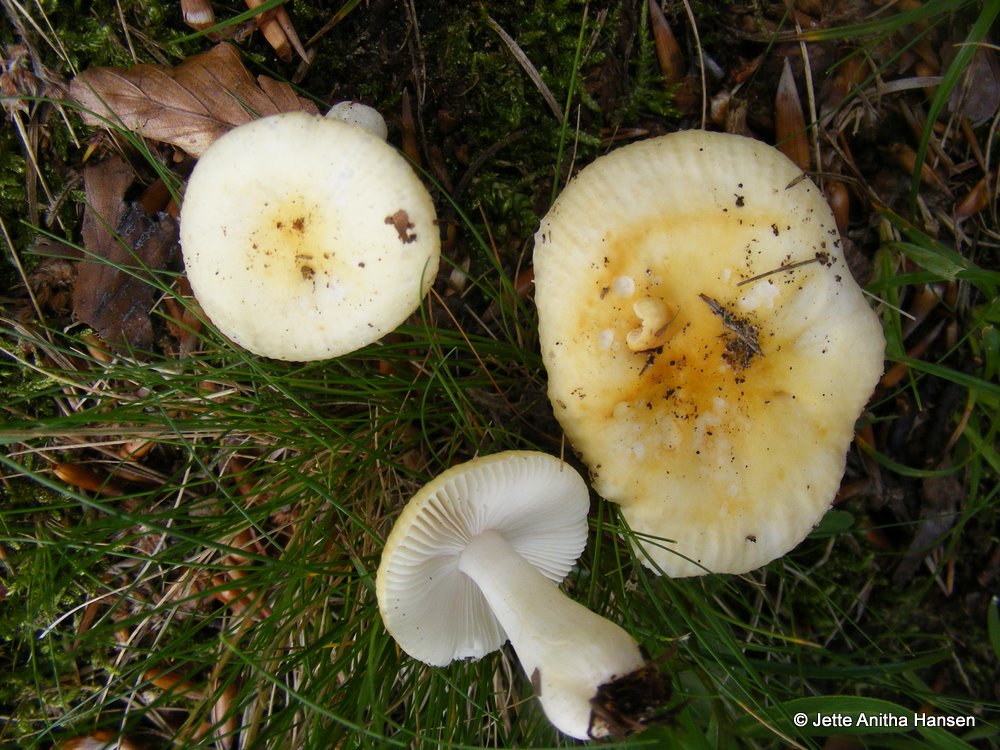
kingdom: Fungi
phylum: Basidiomycota
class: Agaricomycetes
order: Russulales
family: Russulaceae
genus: Russula
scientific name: Russula solaris
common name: sol-skørhat
